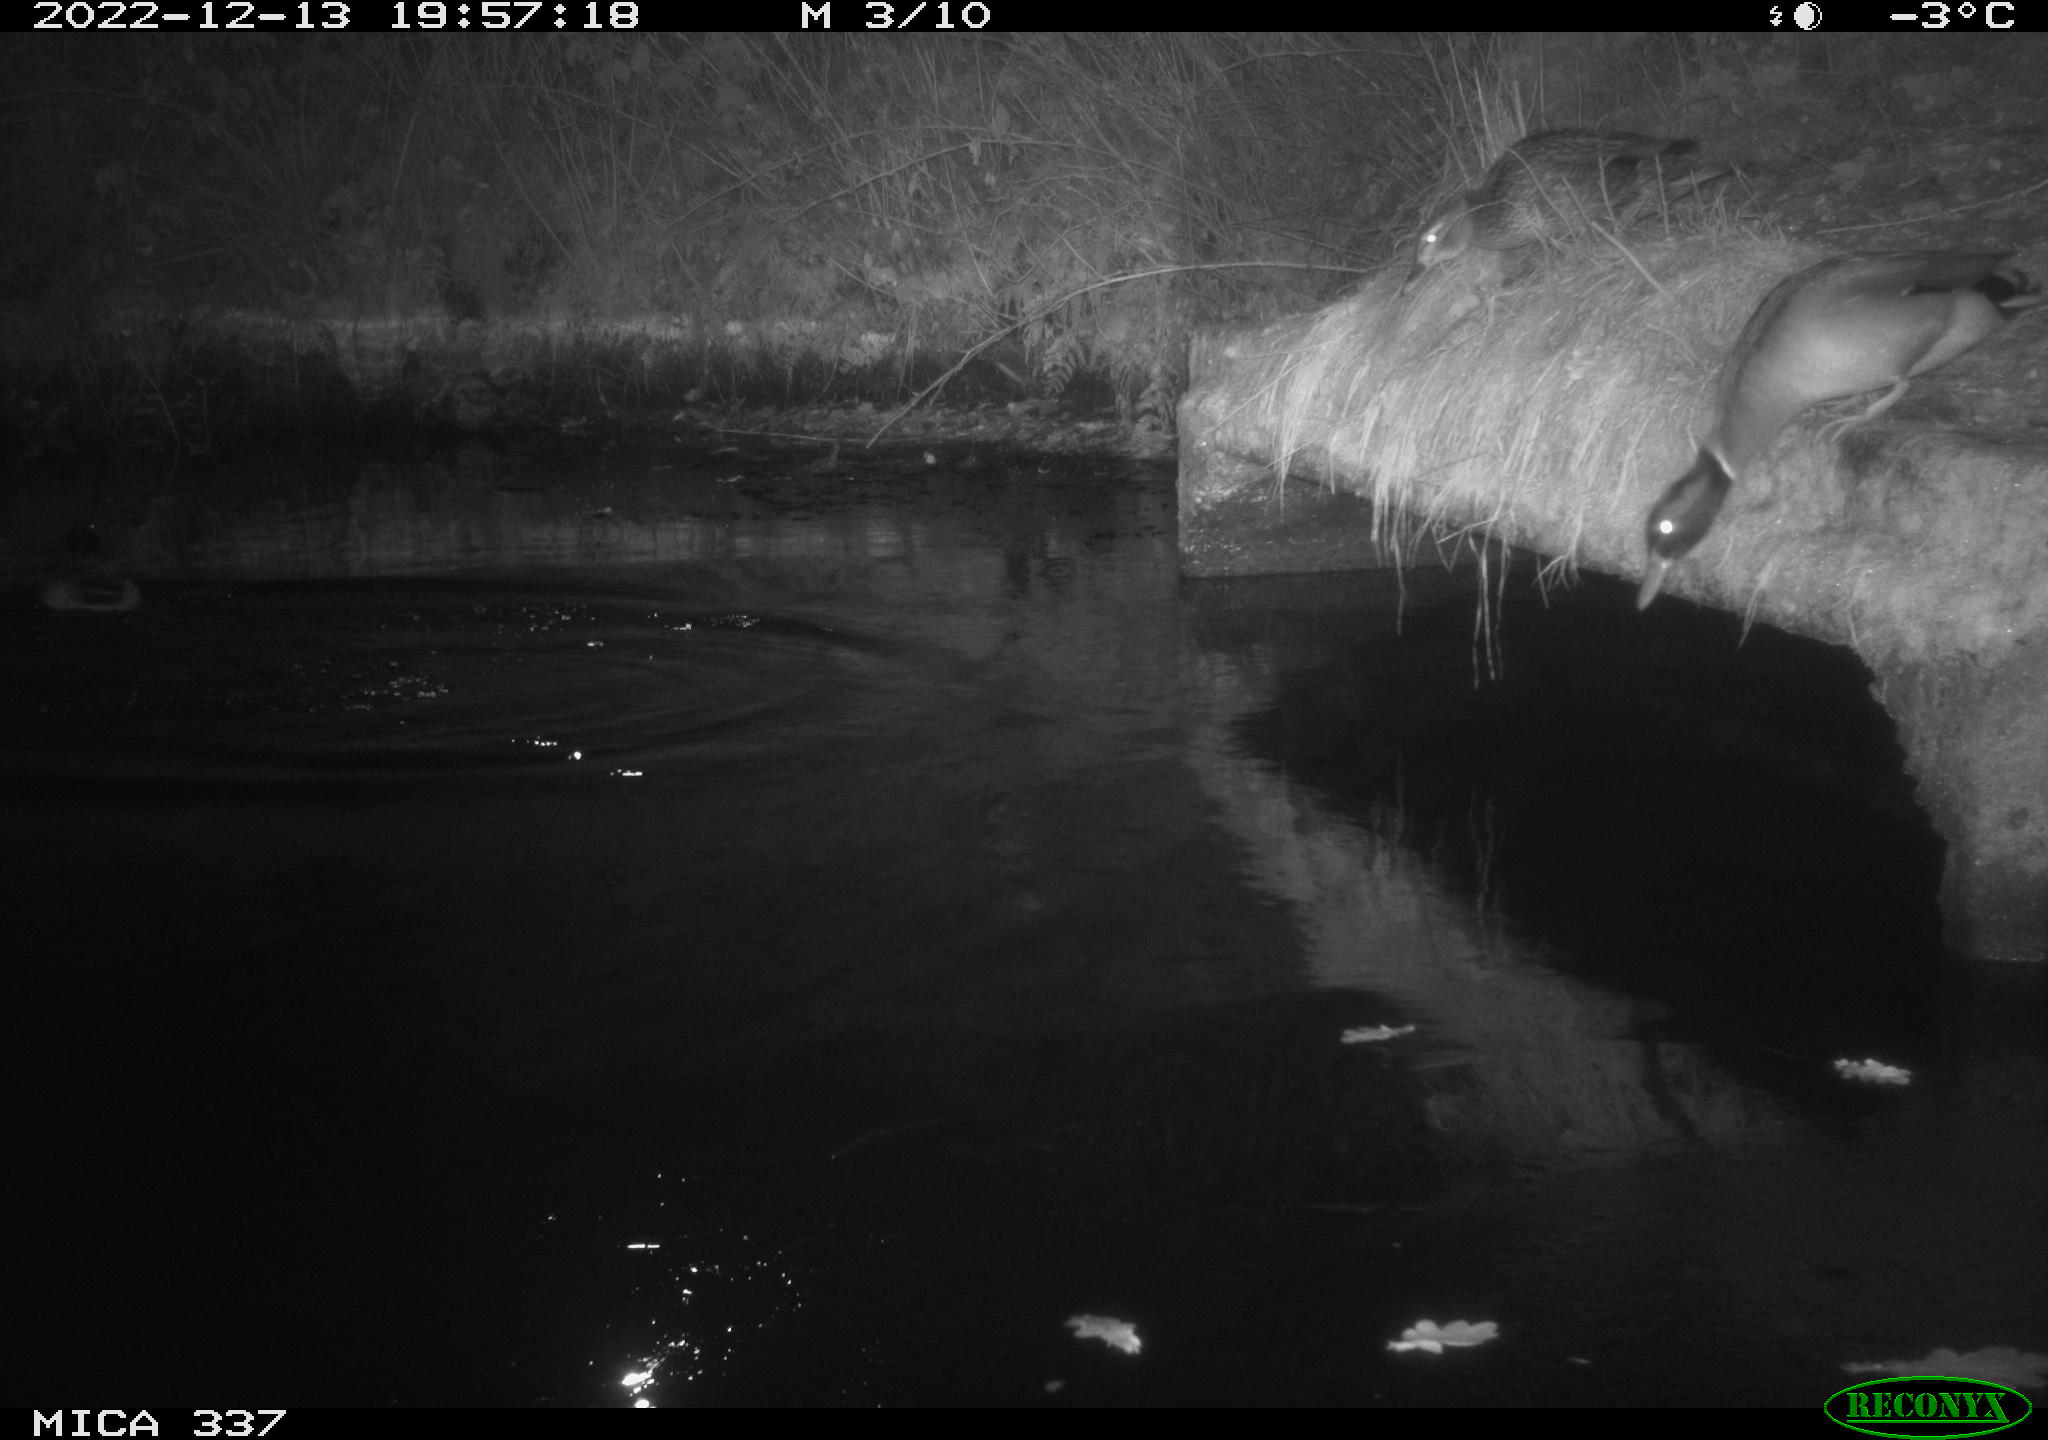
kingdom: Animalia
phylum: Chordata
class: Aves
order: Anseriformes
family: Anatidae
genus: Anas
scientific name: Anas
